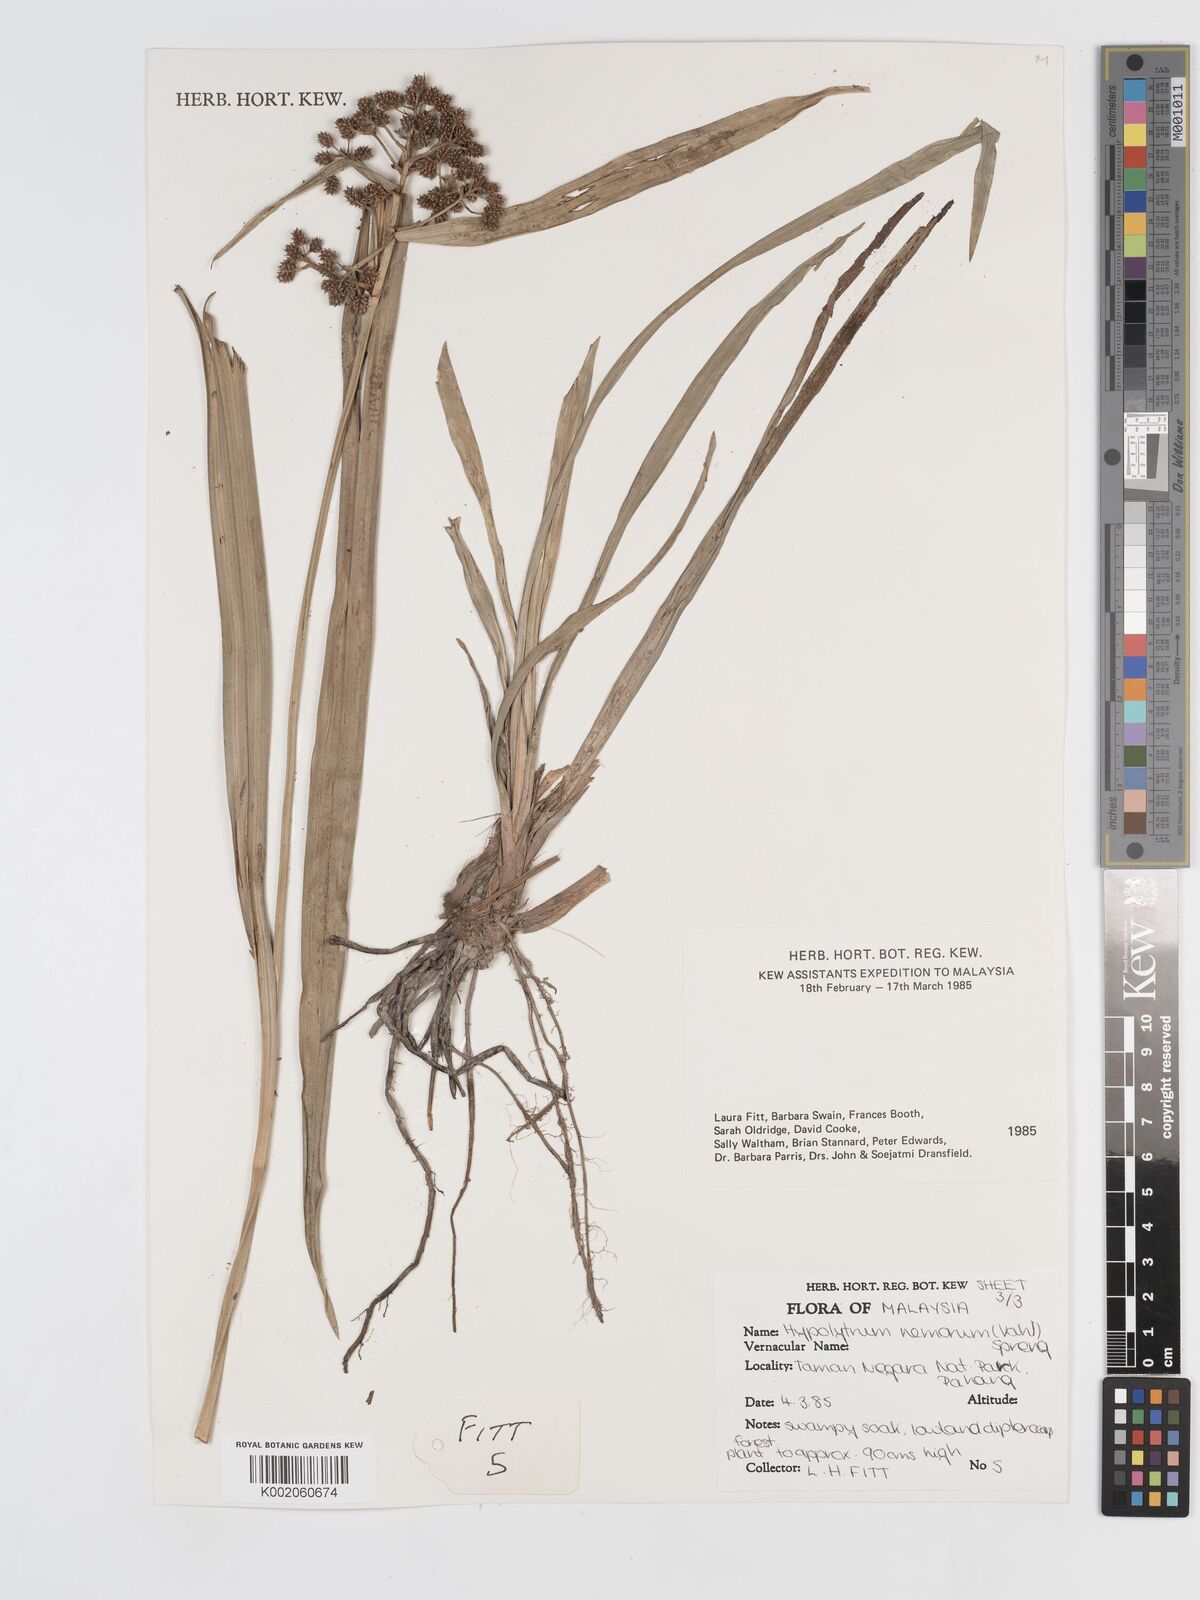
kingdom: Plantae
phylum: Tracheophyta
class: Liliopsida
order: Poales
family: Cyperaceae
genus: Hypolytrum
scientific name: Hypolytrum nemorum
